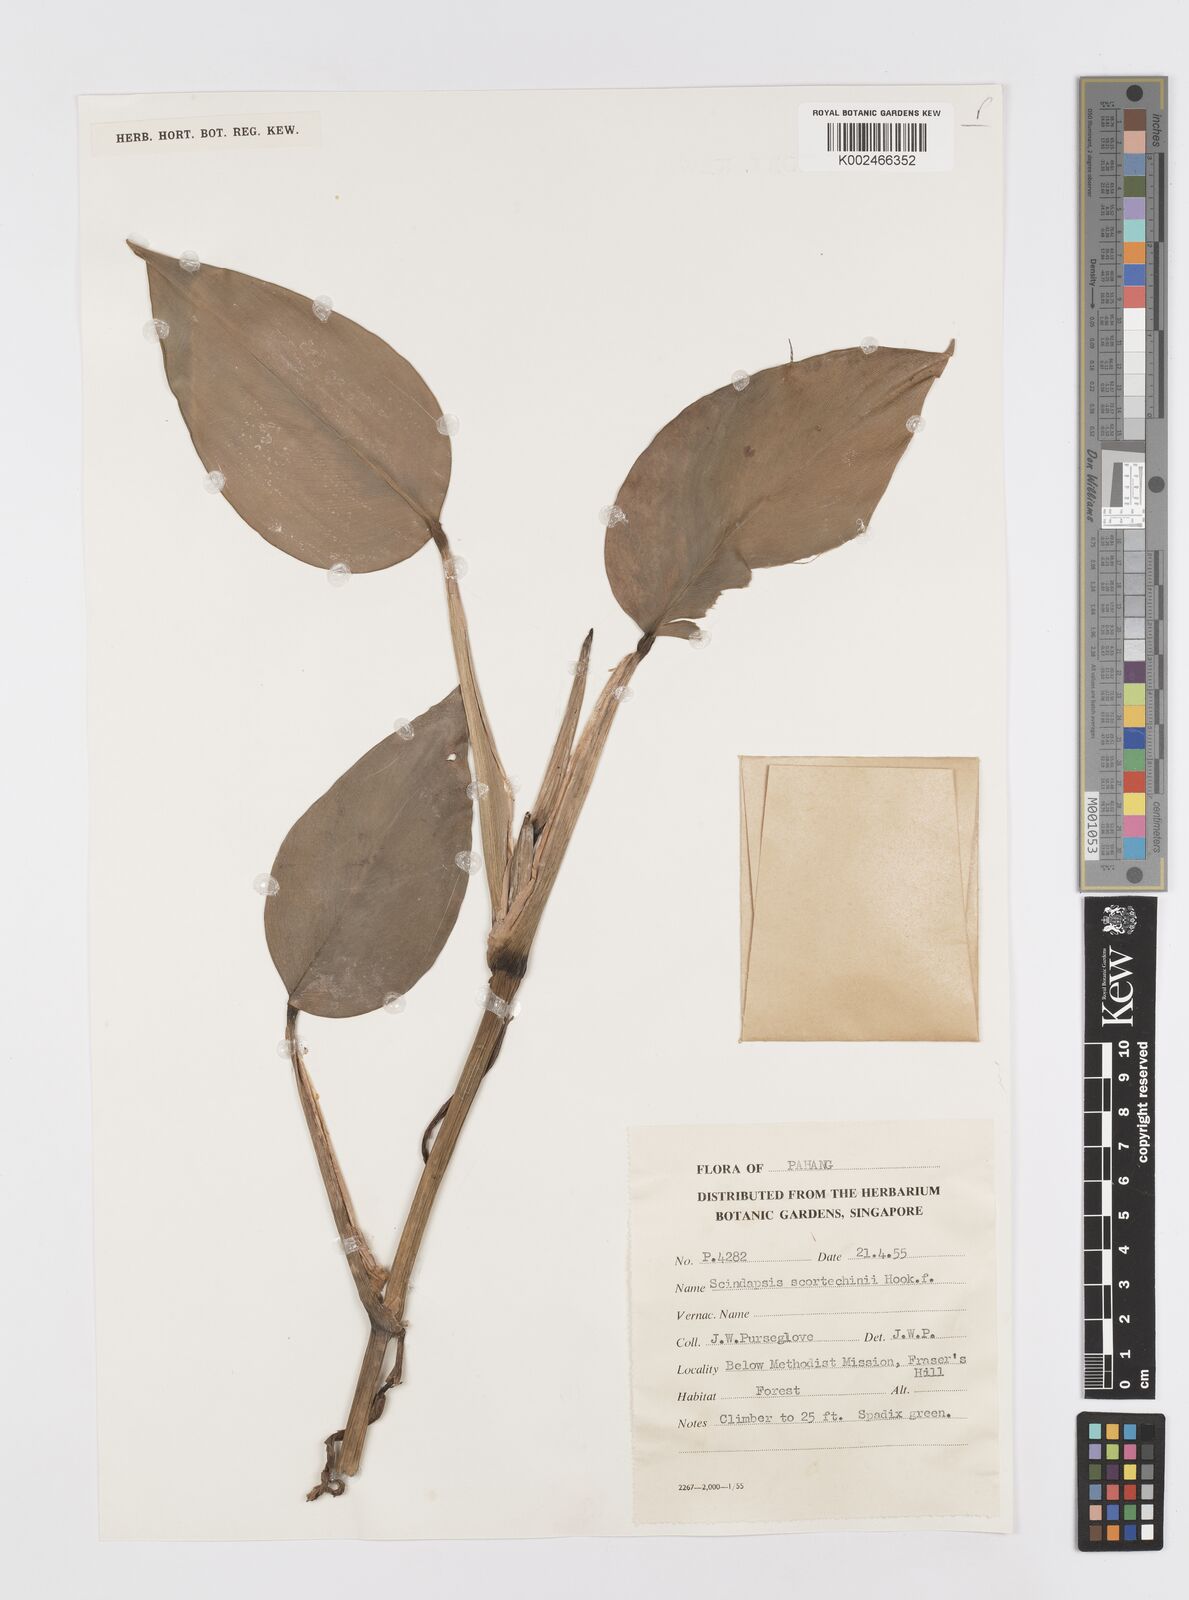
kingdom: Plantae
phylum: Tracheophyta
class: Liliopsida
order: Alismatales
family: Araceae
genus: Scindapsus
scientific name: Scindapsus scortechinii
